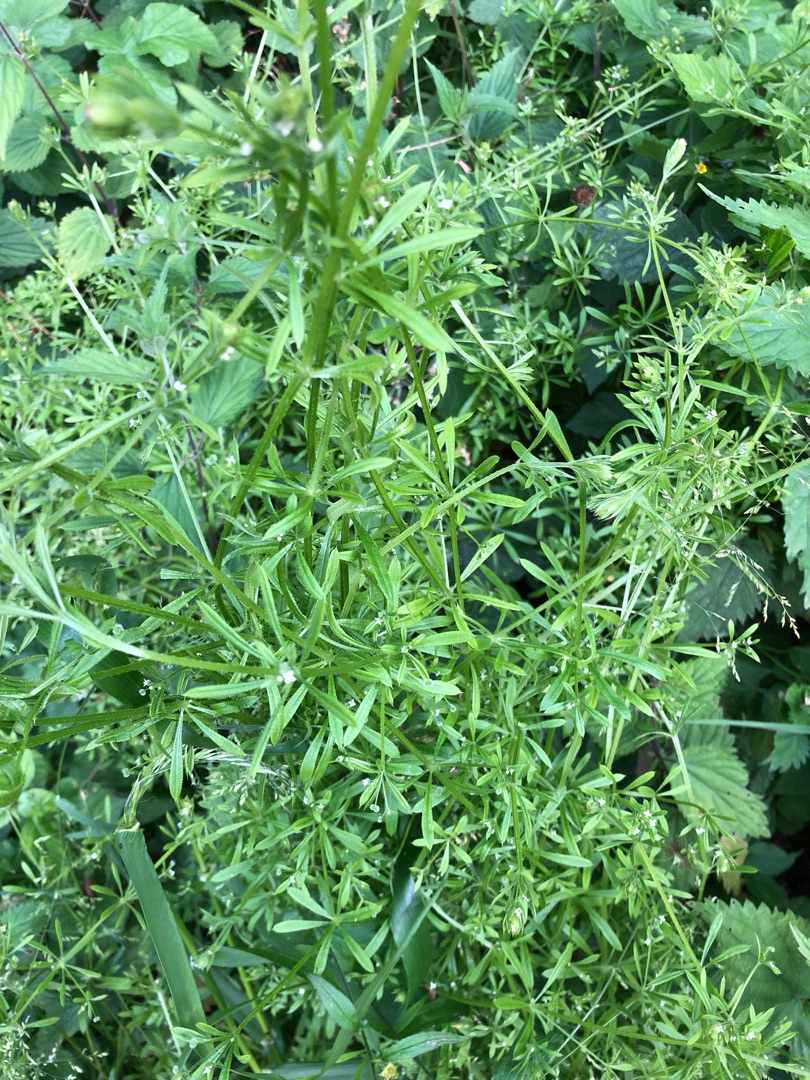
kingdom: Plantae
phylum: Tracheophyta
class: Magnoliopsida
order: Gentianales
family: Rubiaceae
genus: Galium
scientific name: Galium aparine
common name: Burre-snerre
